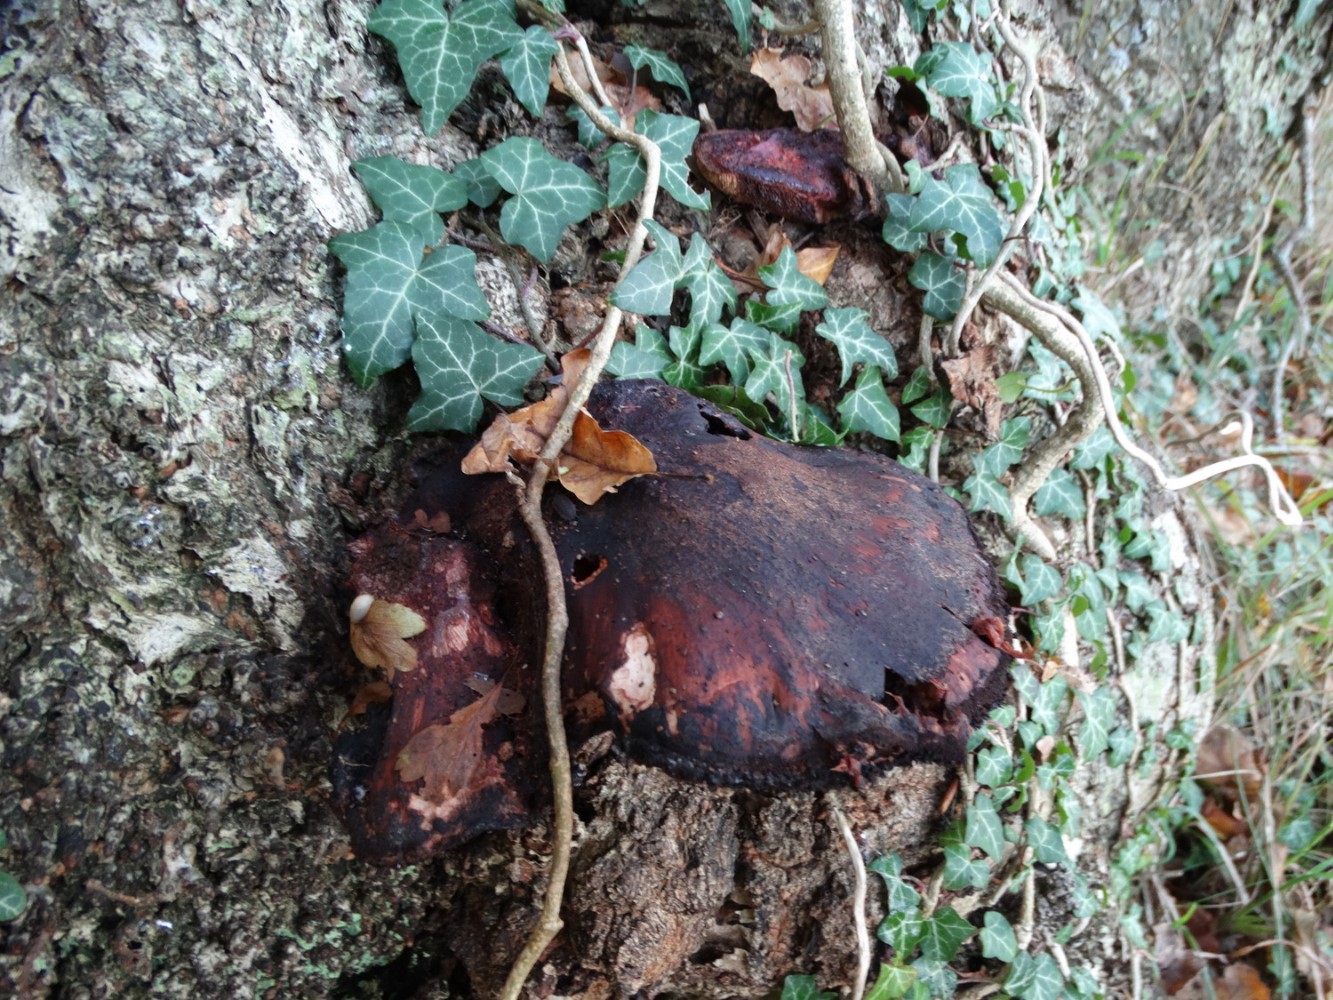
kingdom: Fungi
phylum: Basidiomycota
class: Agaricomycetes
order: Agaricales
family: Fistulinaceae
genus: Fistulina
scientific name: Fistulina hepatica
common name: oksetunge
